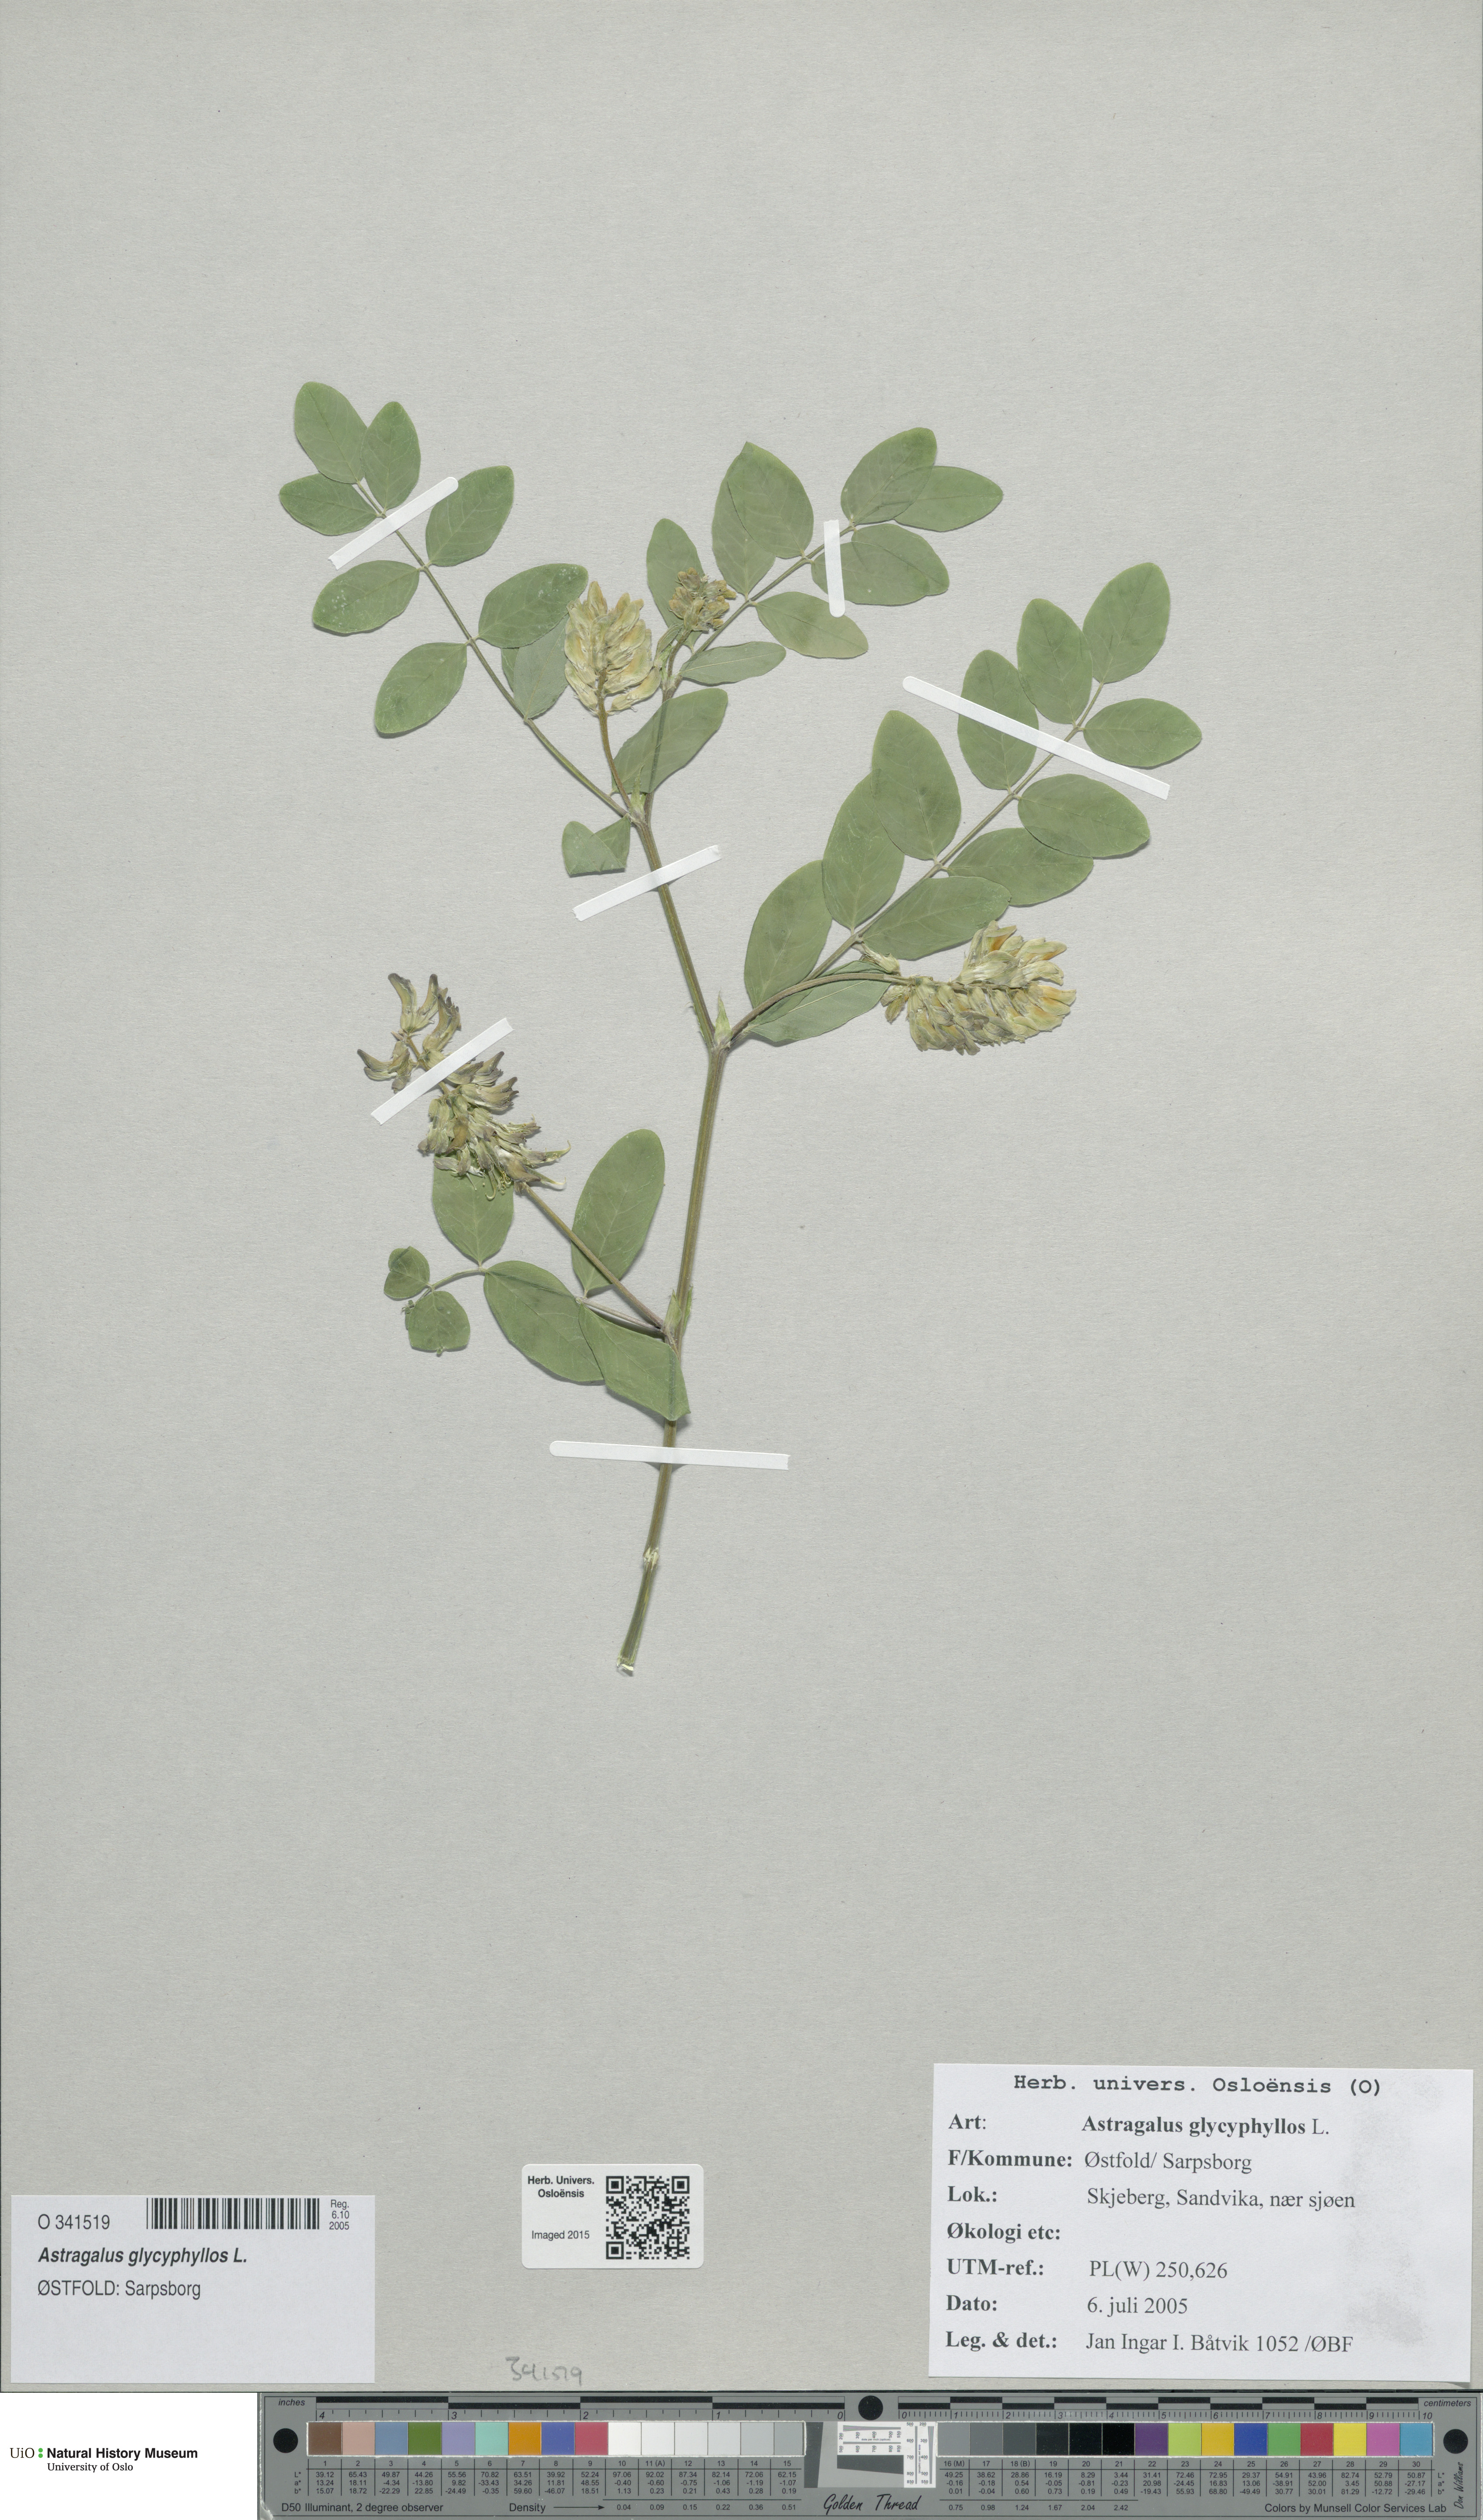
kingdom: Plantae
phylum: Tracheophyta
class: Magnoliopsida
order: Fabales
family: Fabaceae
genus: Astragalus
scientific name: Astragalus glycyphyllos
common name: Wild liquorice
